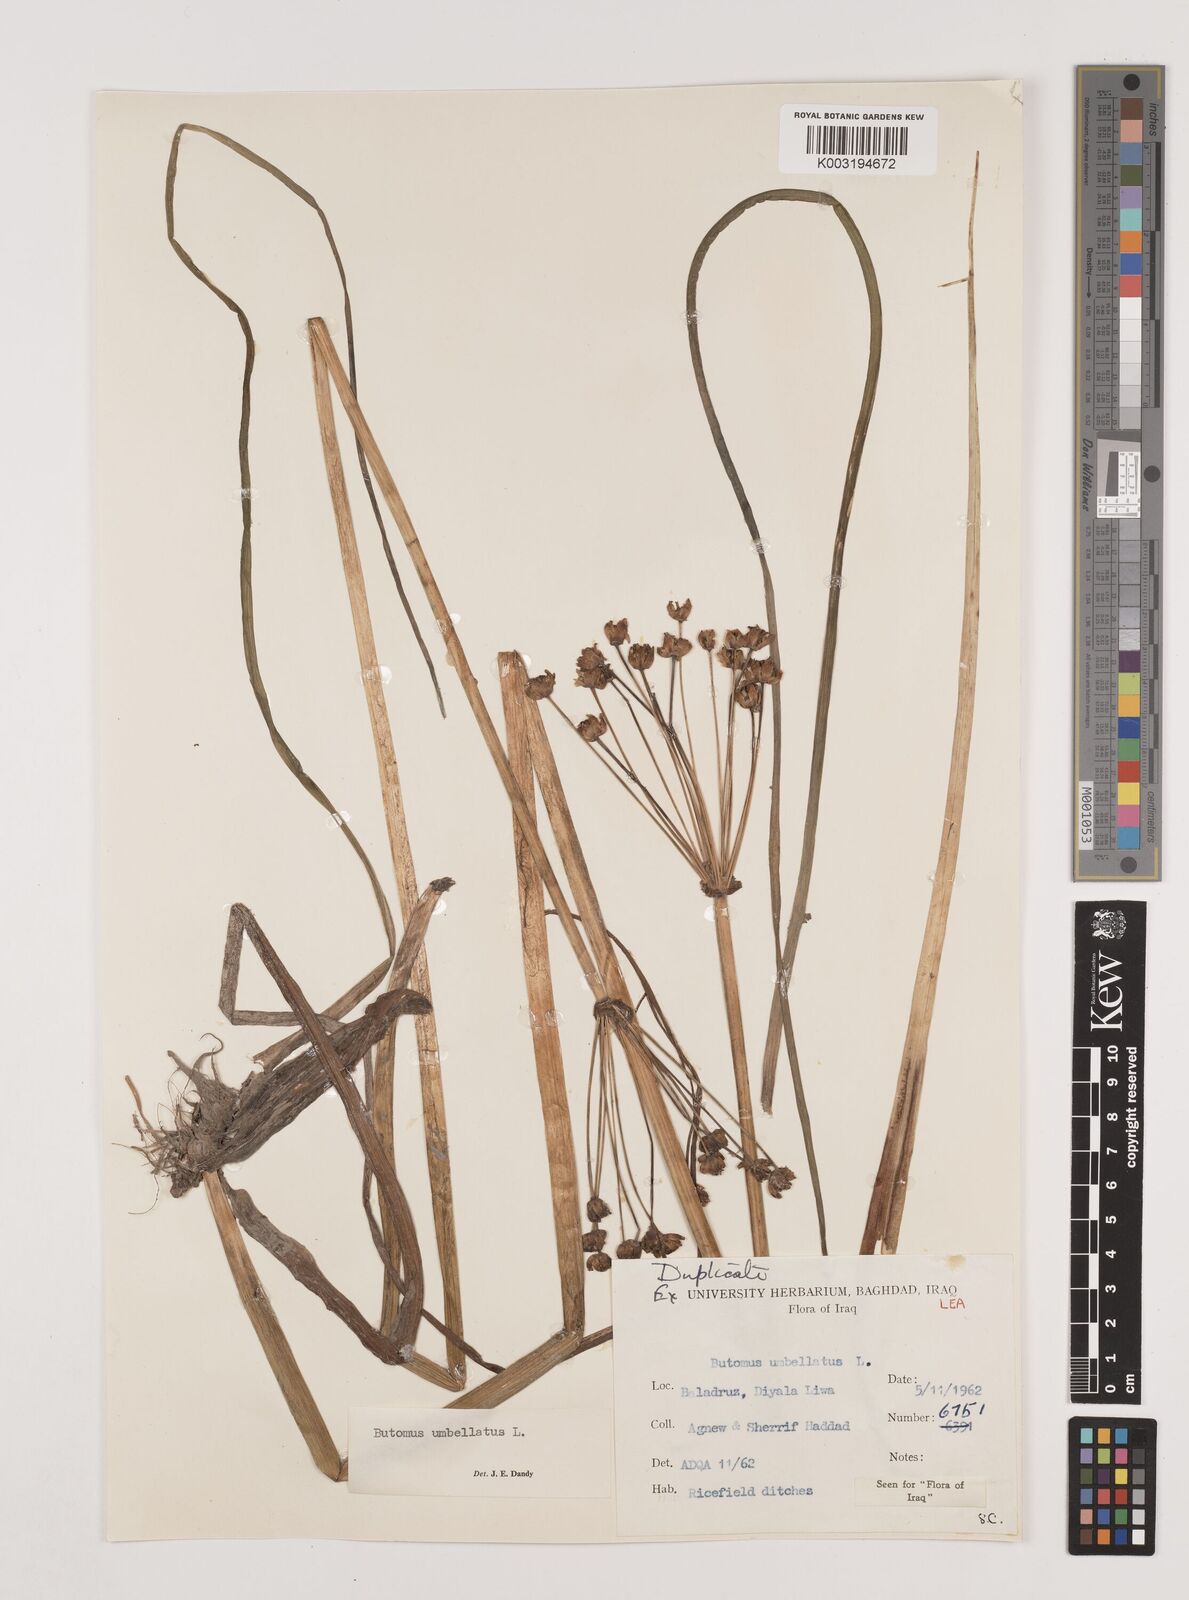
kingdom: Plantae
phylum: Tracheophyta
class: Liliopsida
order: Alismatales
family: Butomaceae
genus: Butomus
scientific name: Butomus
